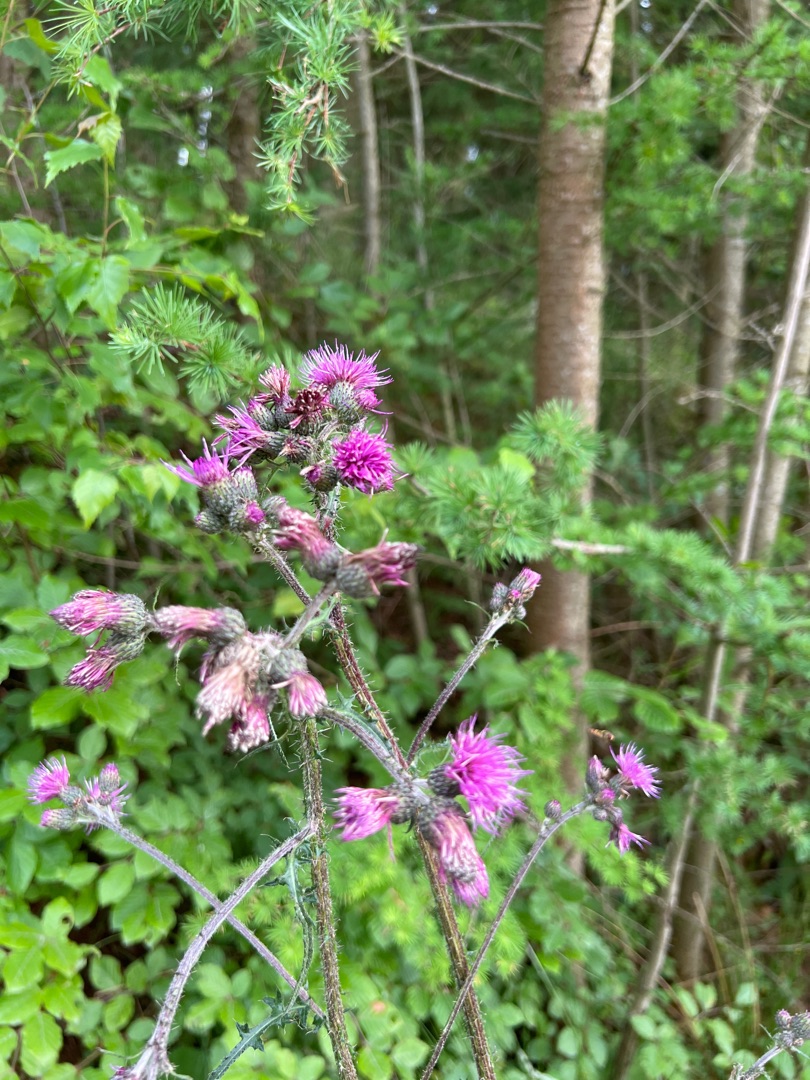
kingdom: Plantae
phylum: Tracheophyta
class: Magnoliopsida
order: Asterales
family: Asteraceae
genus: Cirsium
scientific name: Cirsium palustre
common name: Kær-tidsel
